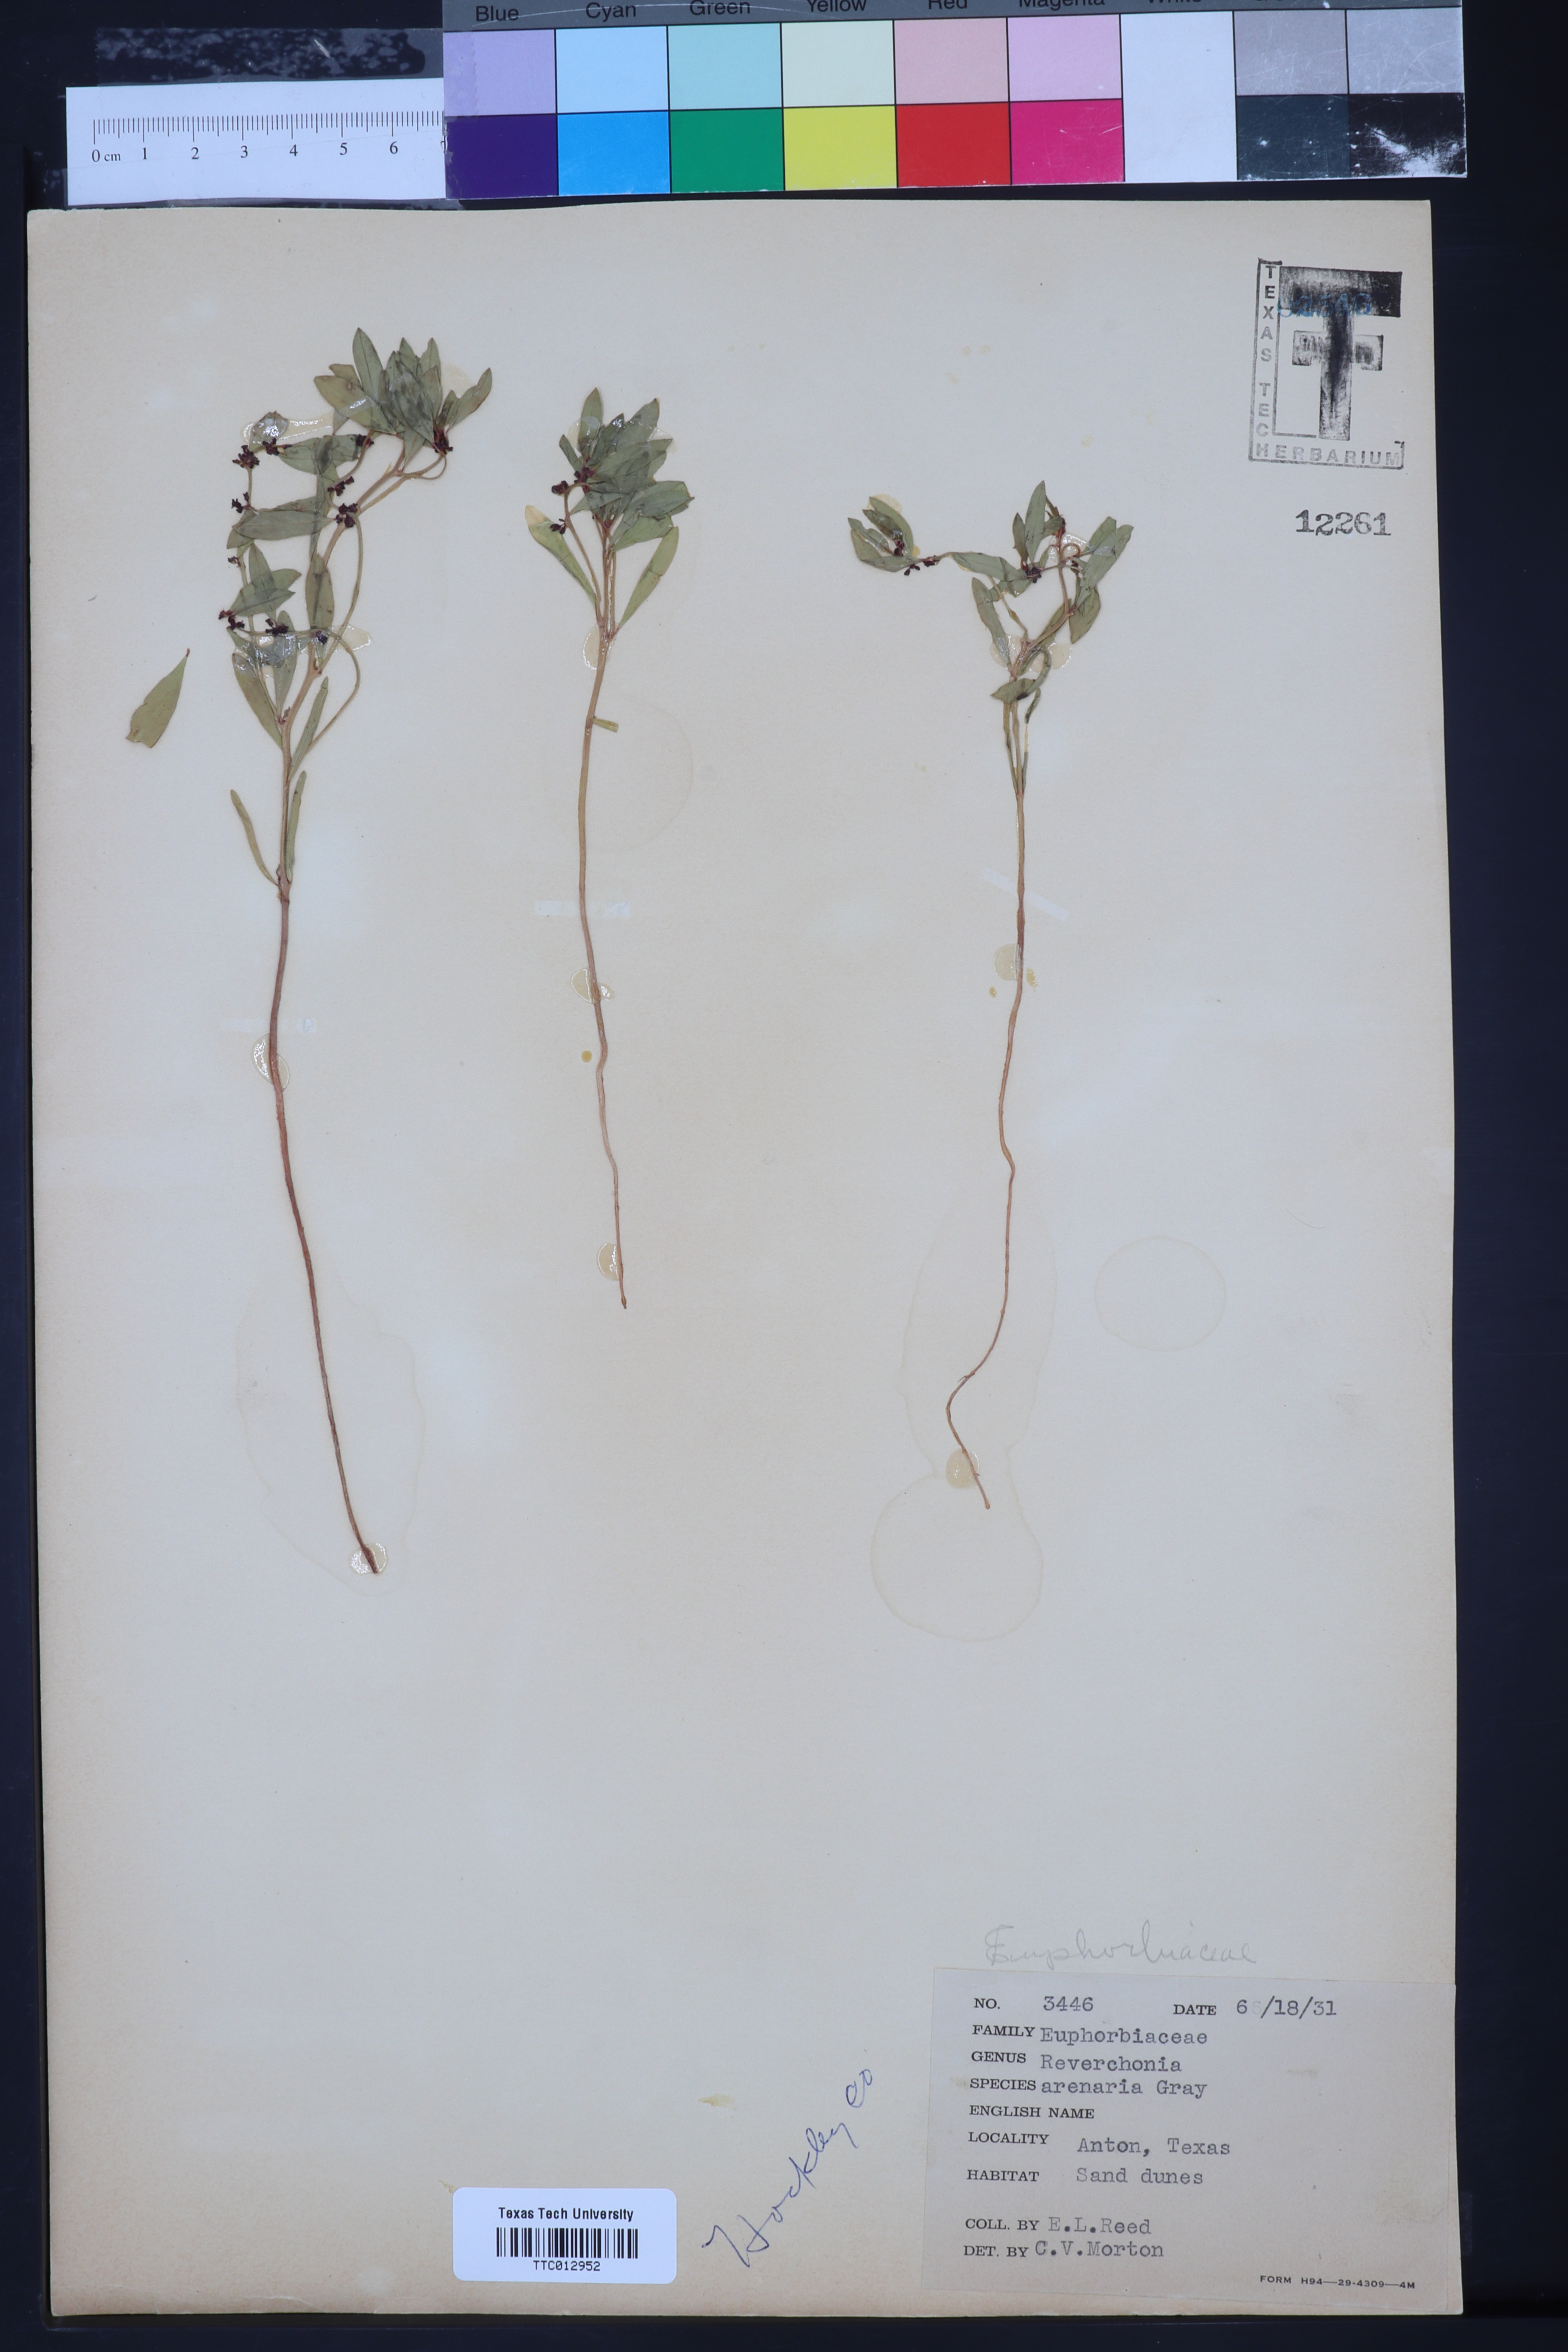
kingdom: Plantae
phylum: Tracheophyta
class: Magnoliopsida
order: Malpighiales
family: Phyllanthaceae
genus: Phyllanthus
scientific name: Phyllanthus warnockii
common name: Sand reverchonia
